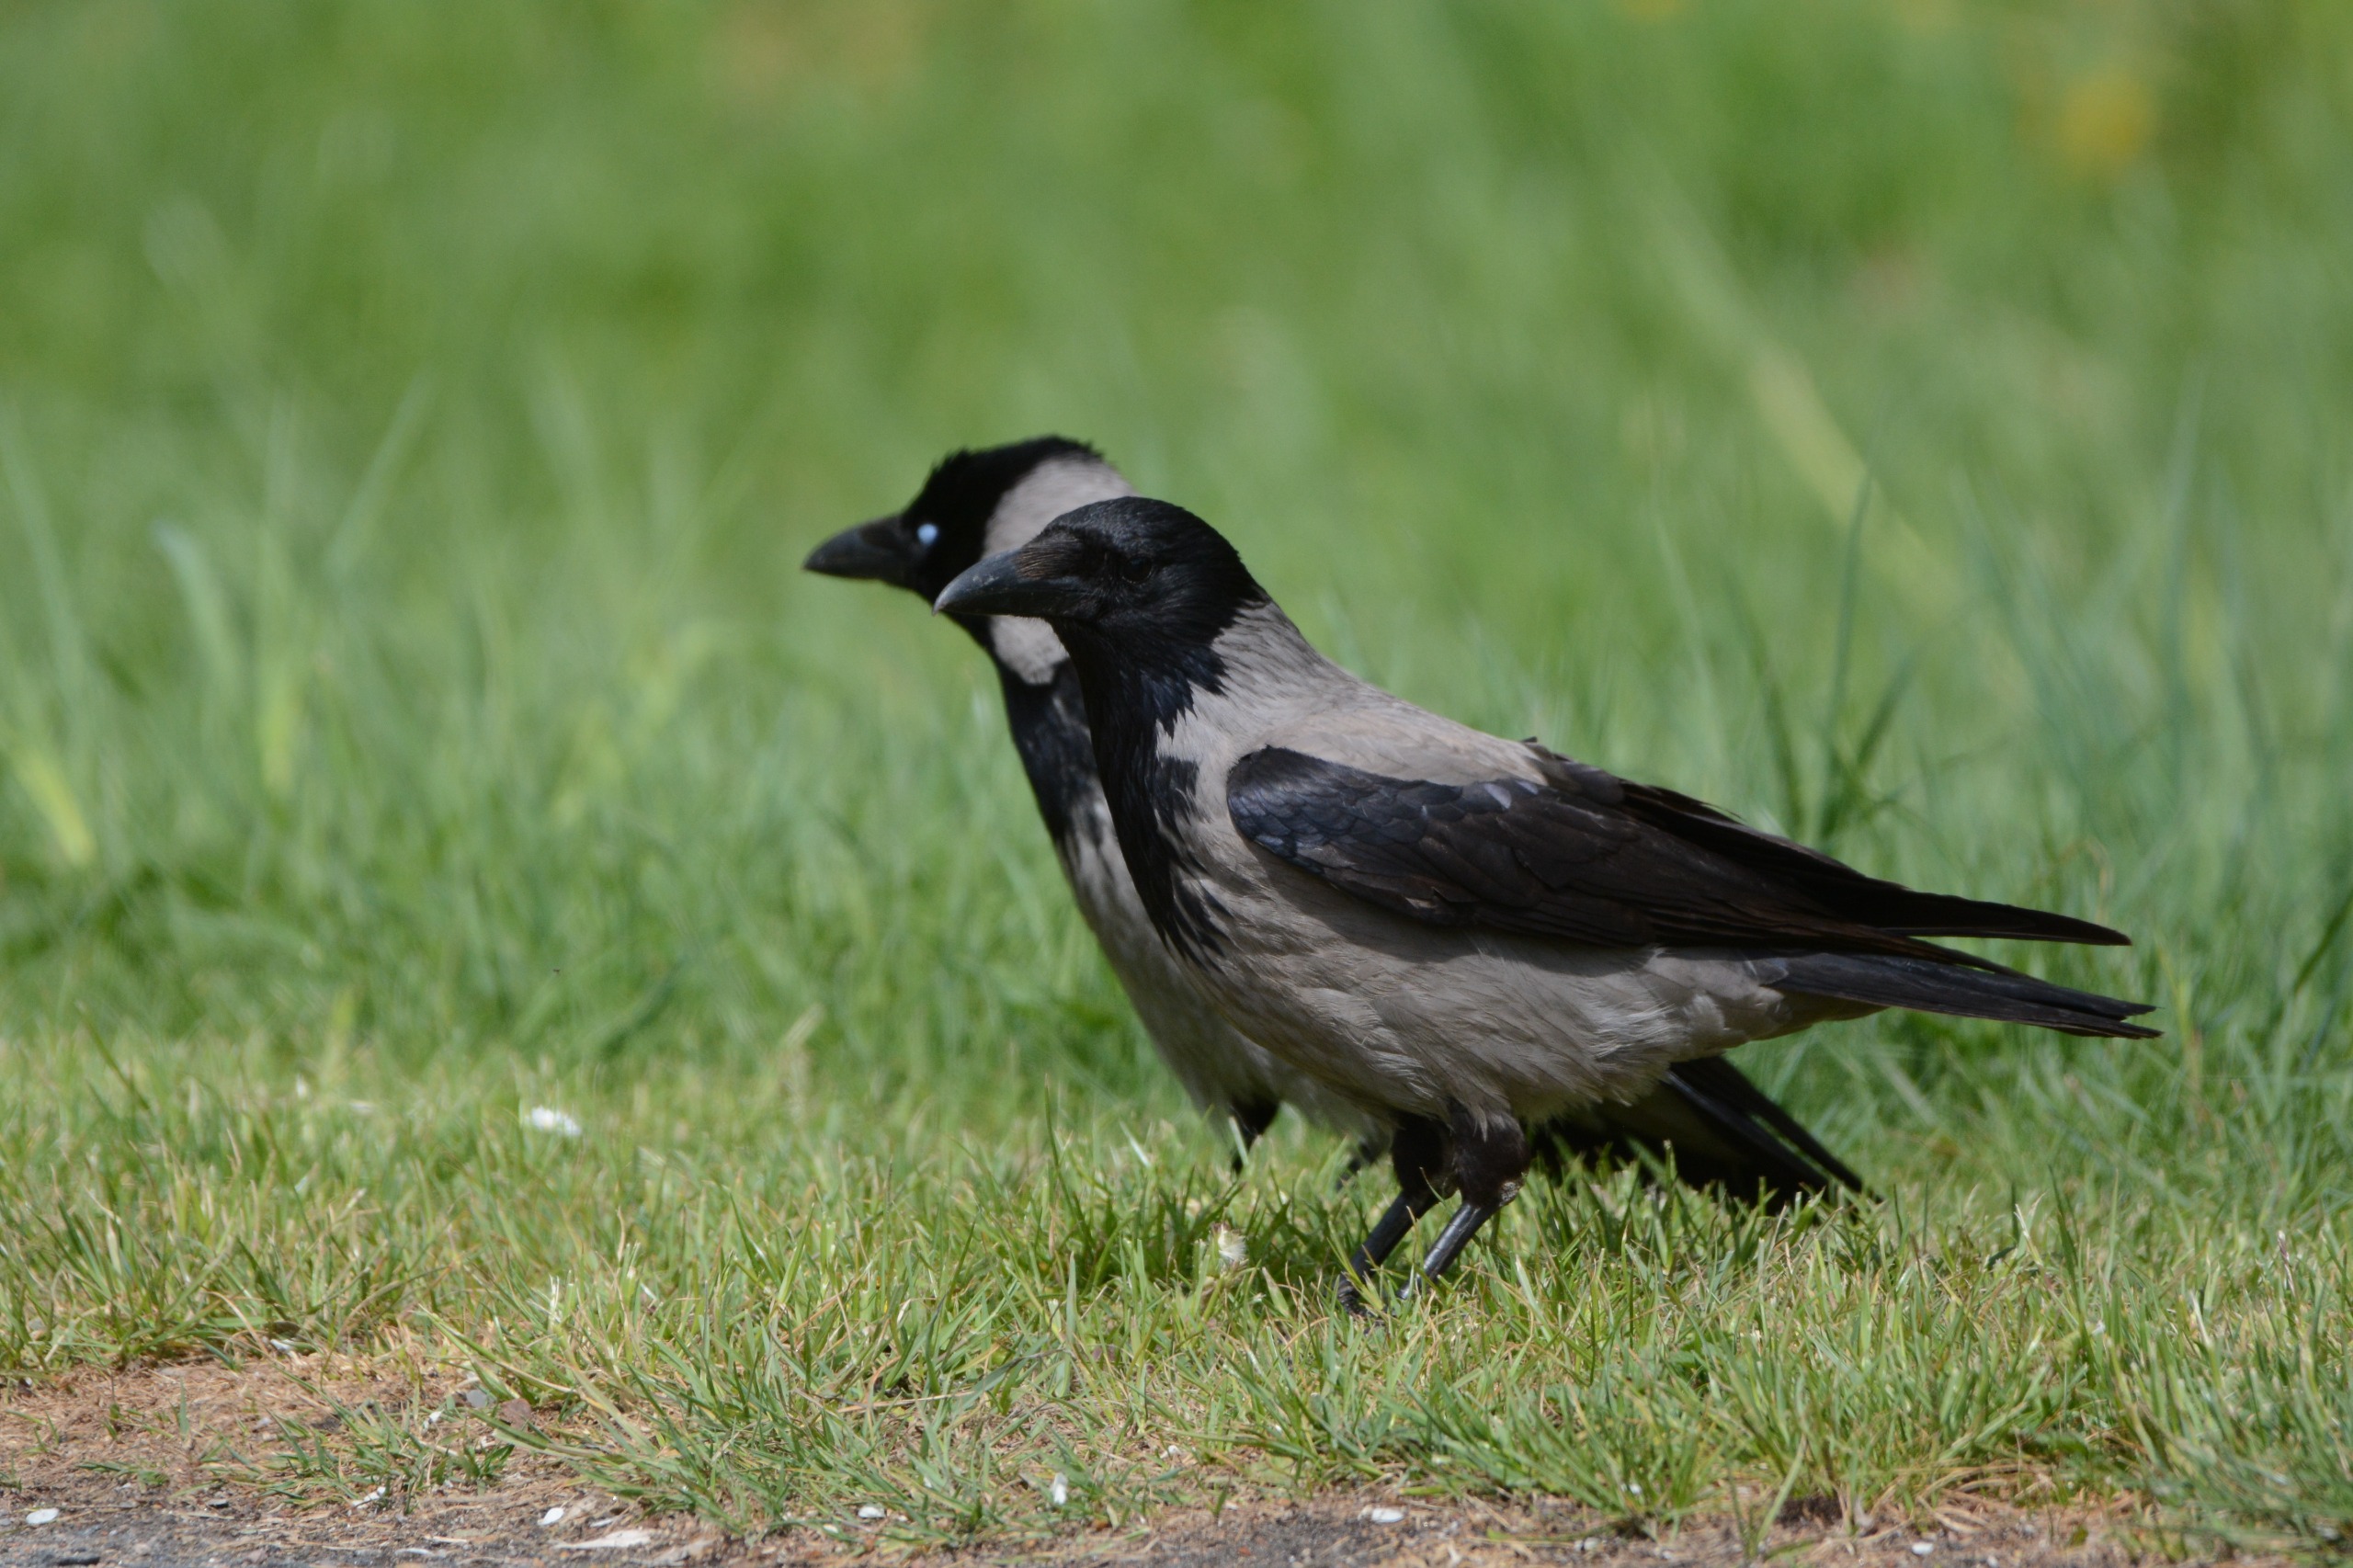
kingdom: Animalia
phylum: Chordata
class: Aves
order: Passeriformes
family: Corvidae
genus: Corvus
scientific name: Corvus cornix
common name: Gråkrage
